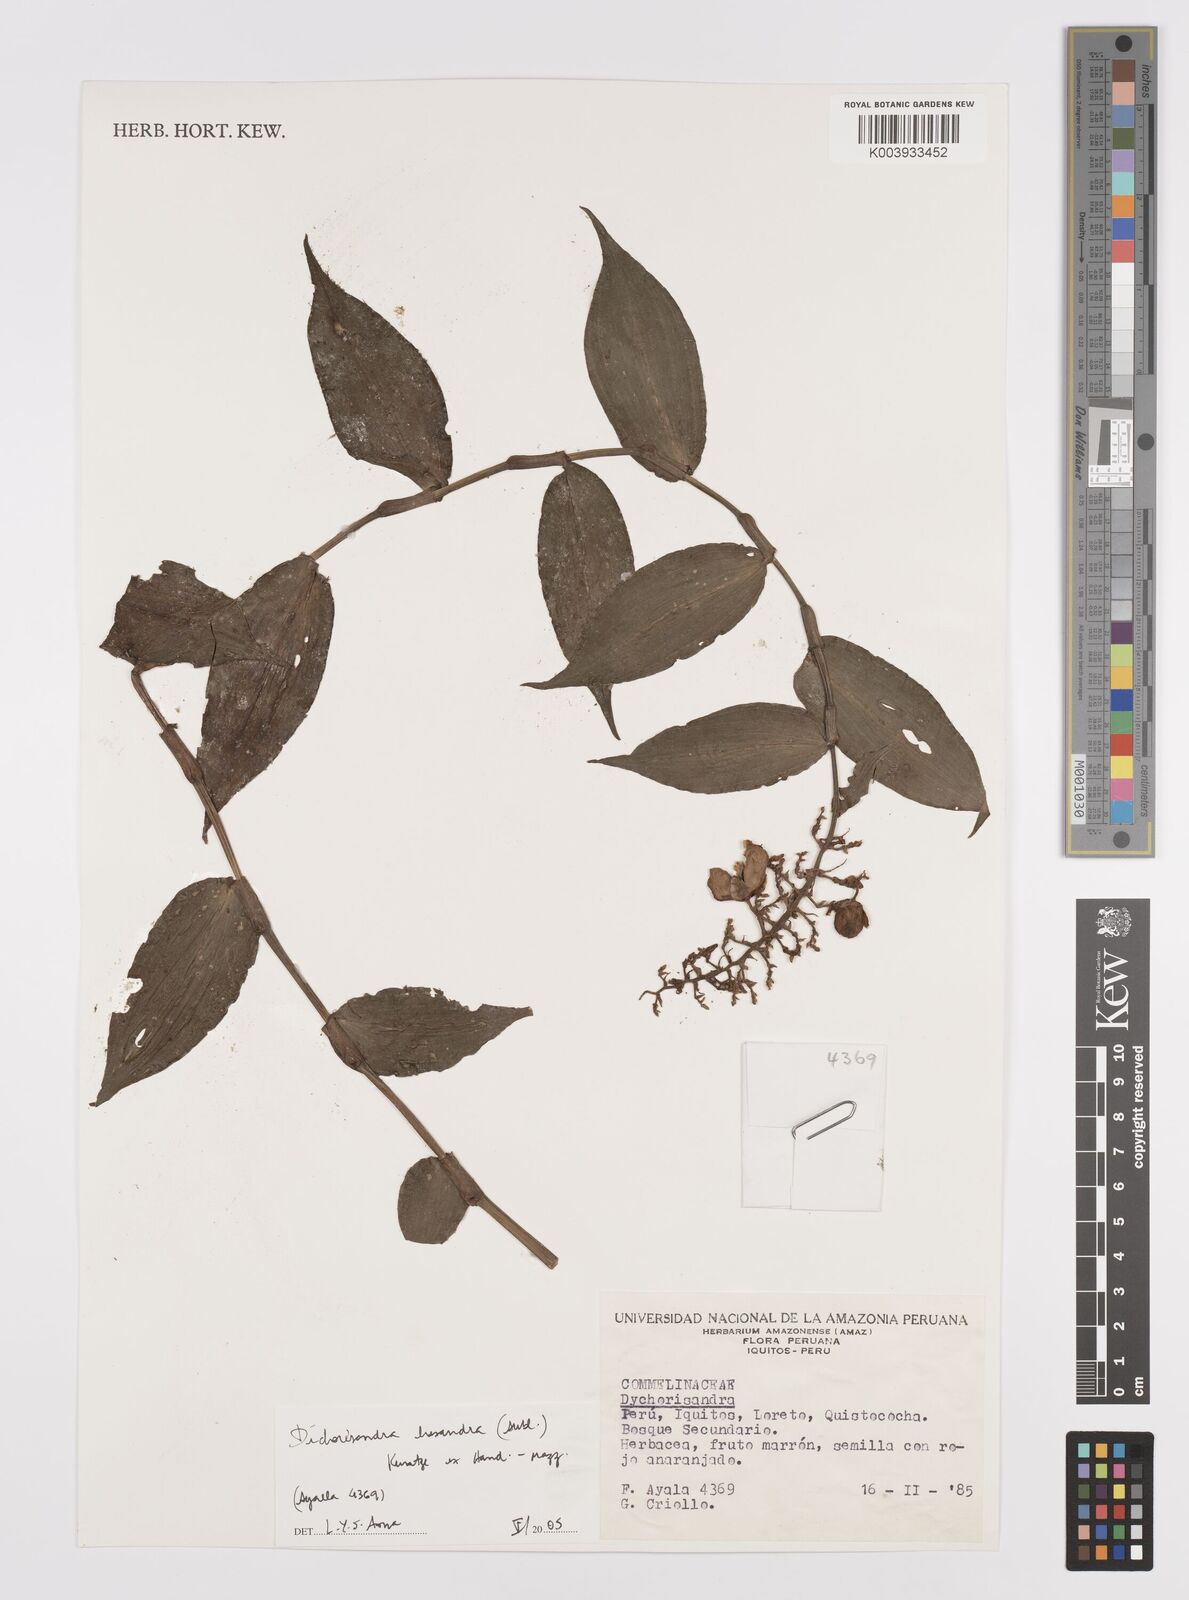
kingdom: Plantae
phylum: Tracheophyta
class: Liliopsida
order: Commelinales
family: Commelinaceae
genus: Dichorisandra
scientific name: Dichorisandra hexandra
